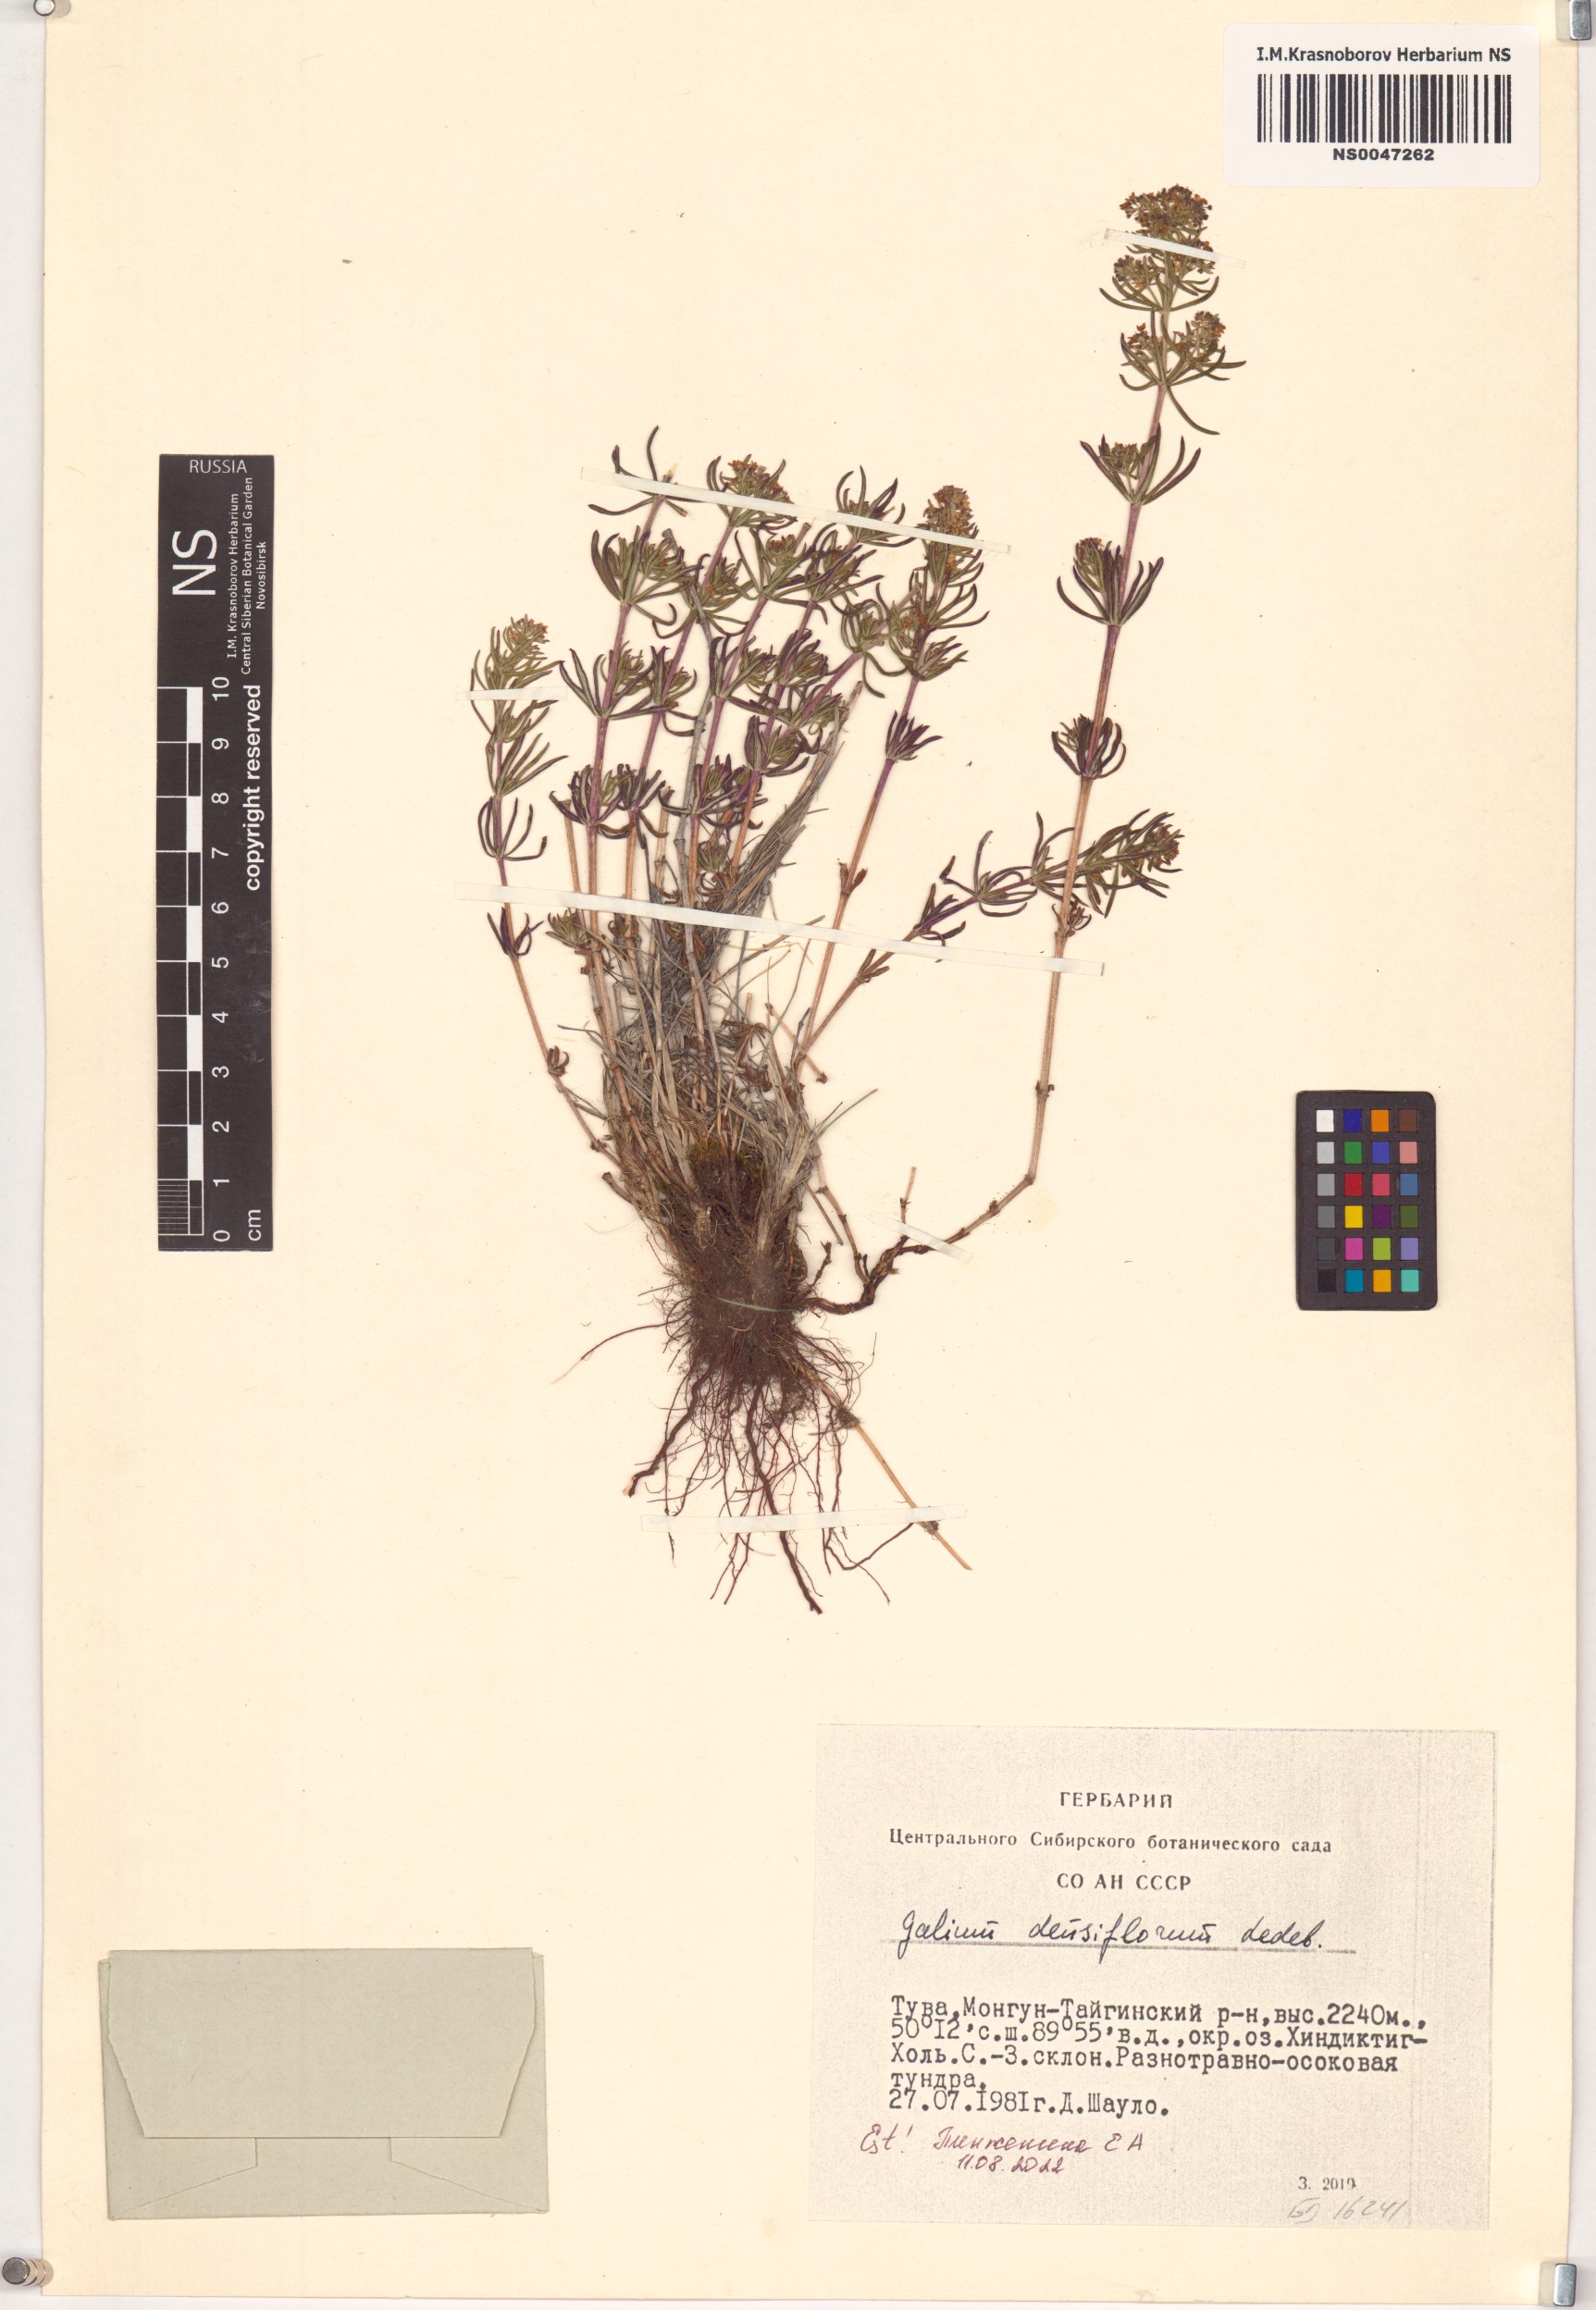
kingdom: Plantae
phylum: Tracheophyta
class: Magnoliopsida
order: Gentianales
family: Rubiaceae
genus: Galium
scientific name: Galium densiflorum
